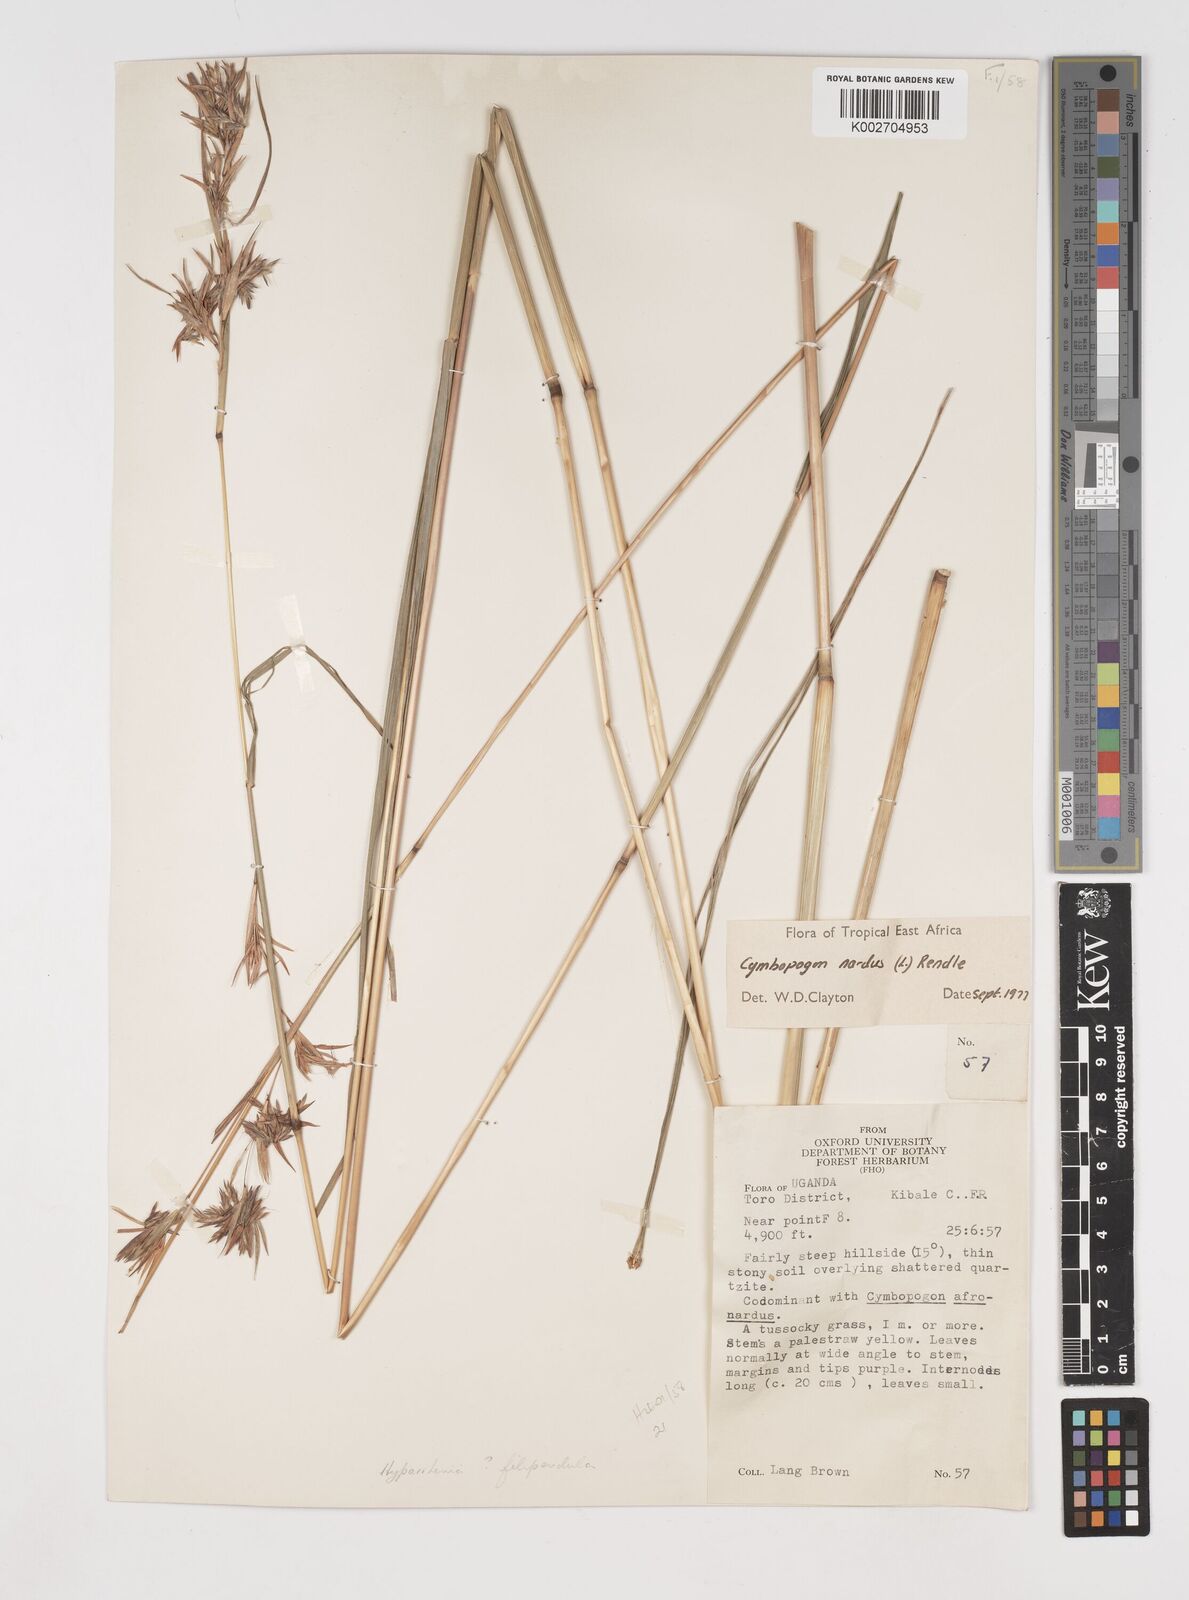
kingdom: Plantae
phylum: Tracheophyta
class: Liliopsida
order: Poales
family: Poaceae
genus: Cymbopogon
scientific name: Cymbopogon nardus
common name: Giant turpentine grass
